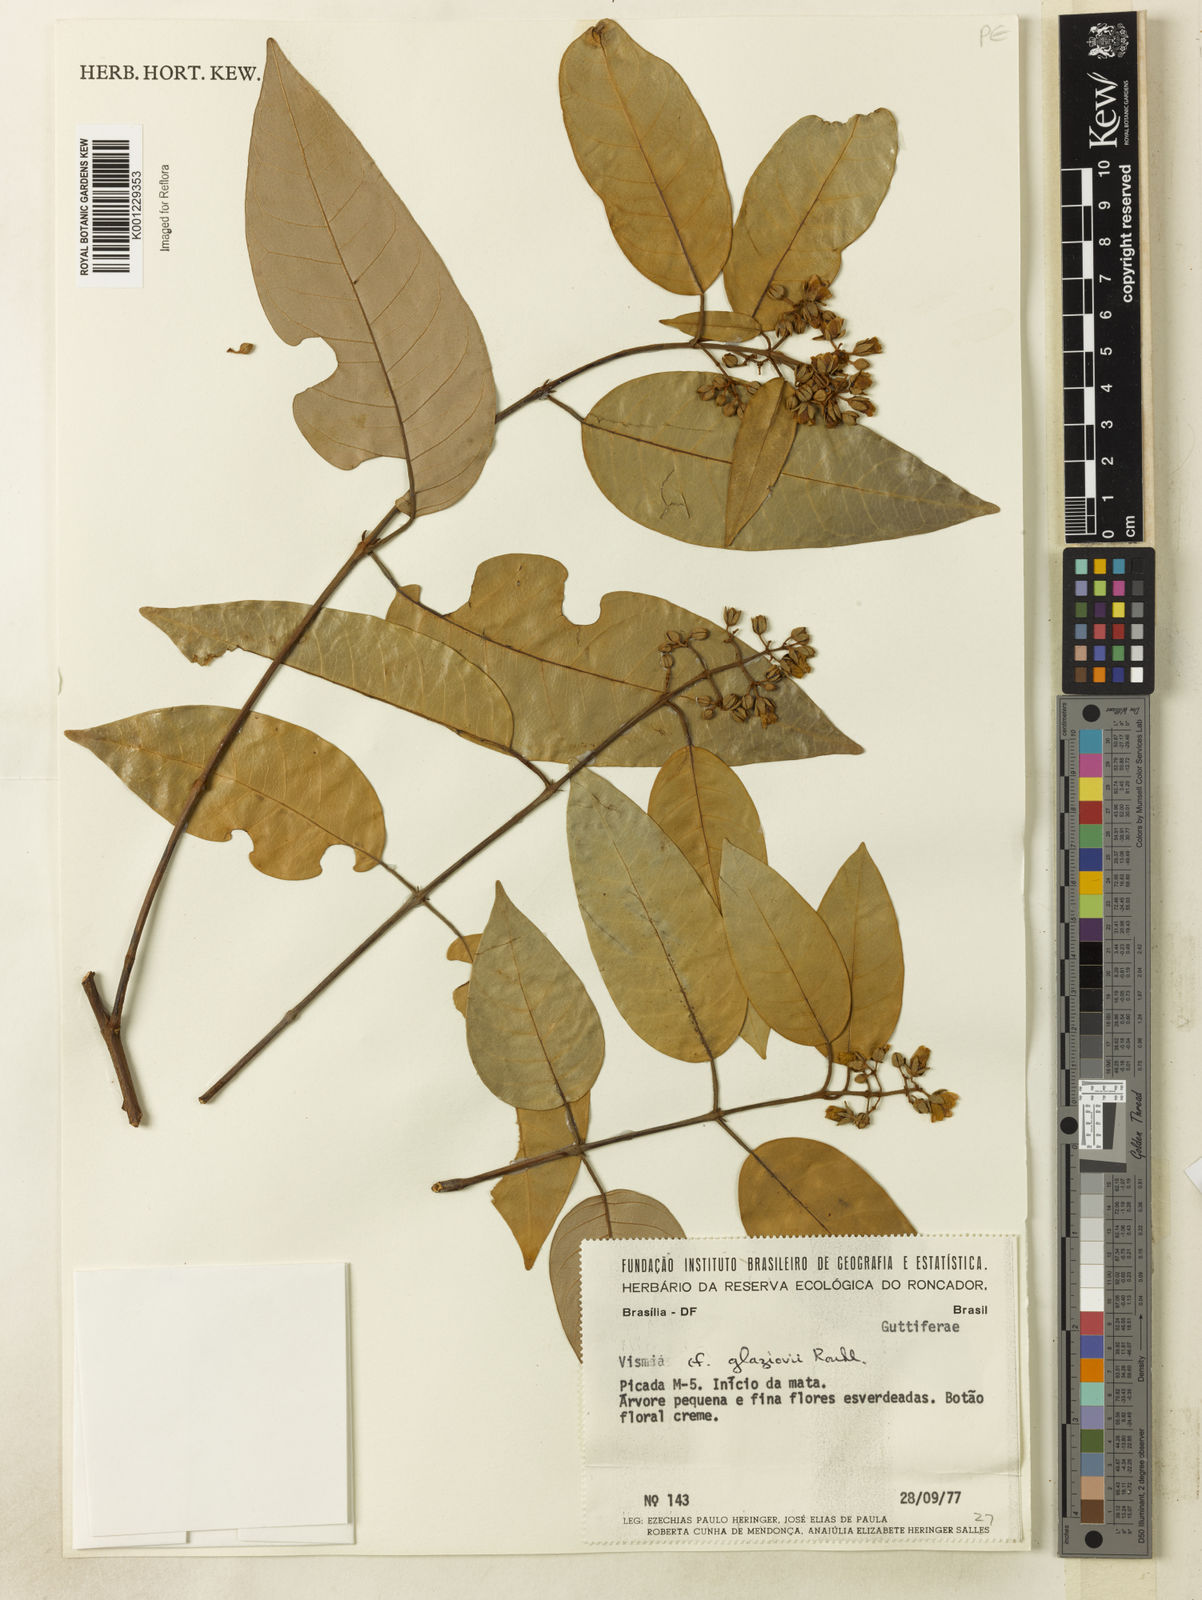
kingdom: Plantae
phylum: Tracheophyta
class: Magnoliopsida
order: Malpighiales
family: Hypericaceae
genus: Vismia
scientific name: Vismia gracilis
